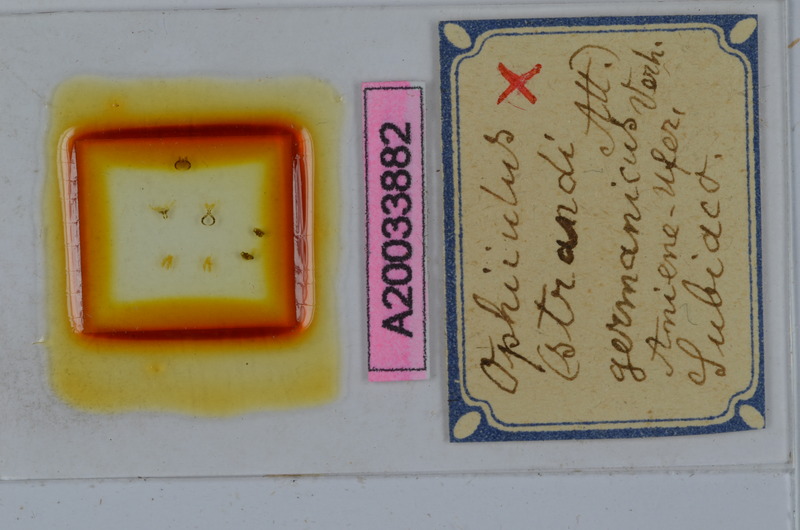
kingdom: Animalia
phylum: Arthropoda
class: Diplopoda
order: Julida
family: Julidae
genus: Ophyiulus
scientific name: Ophyiulus germanicus
